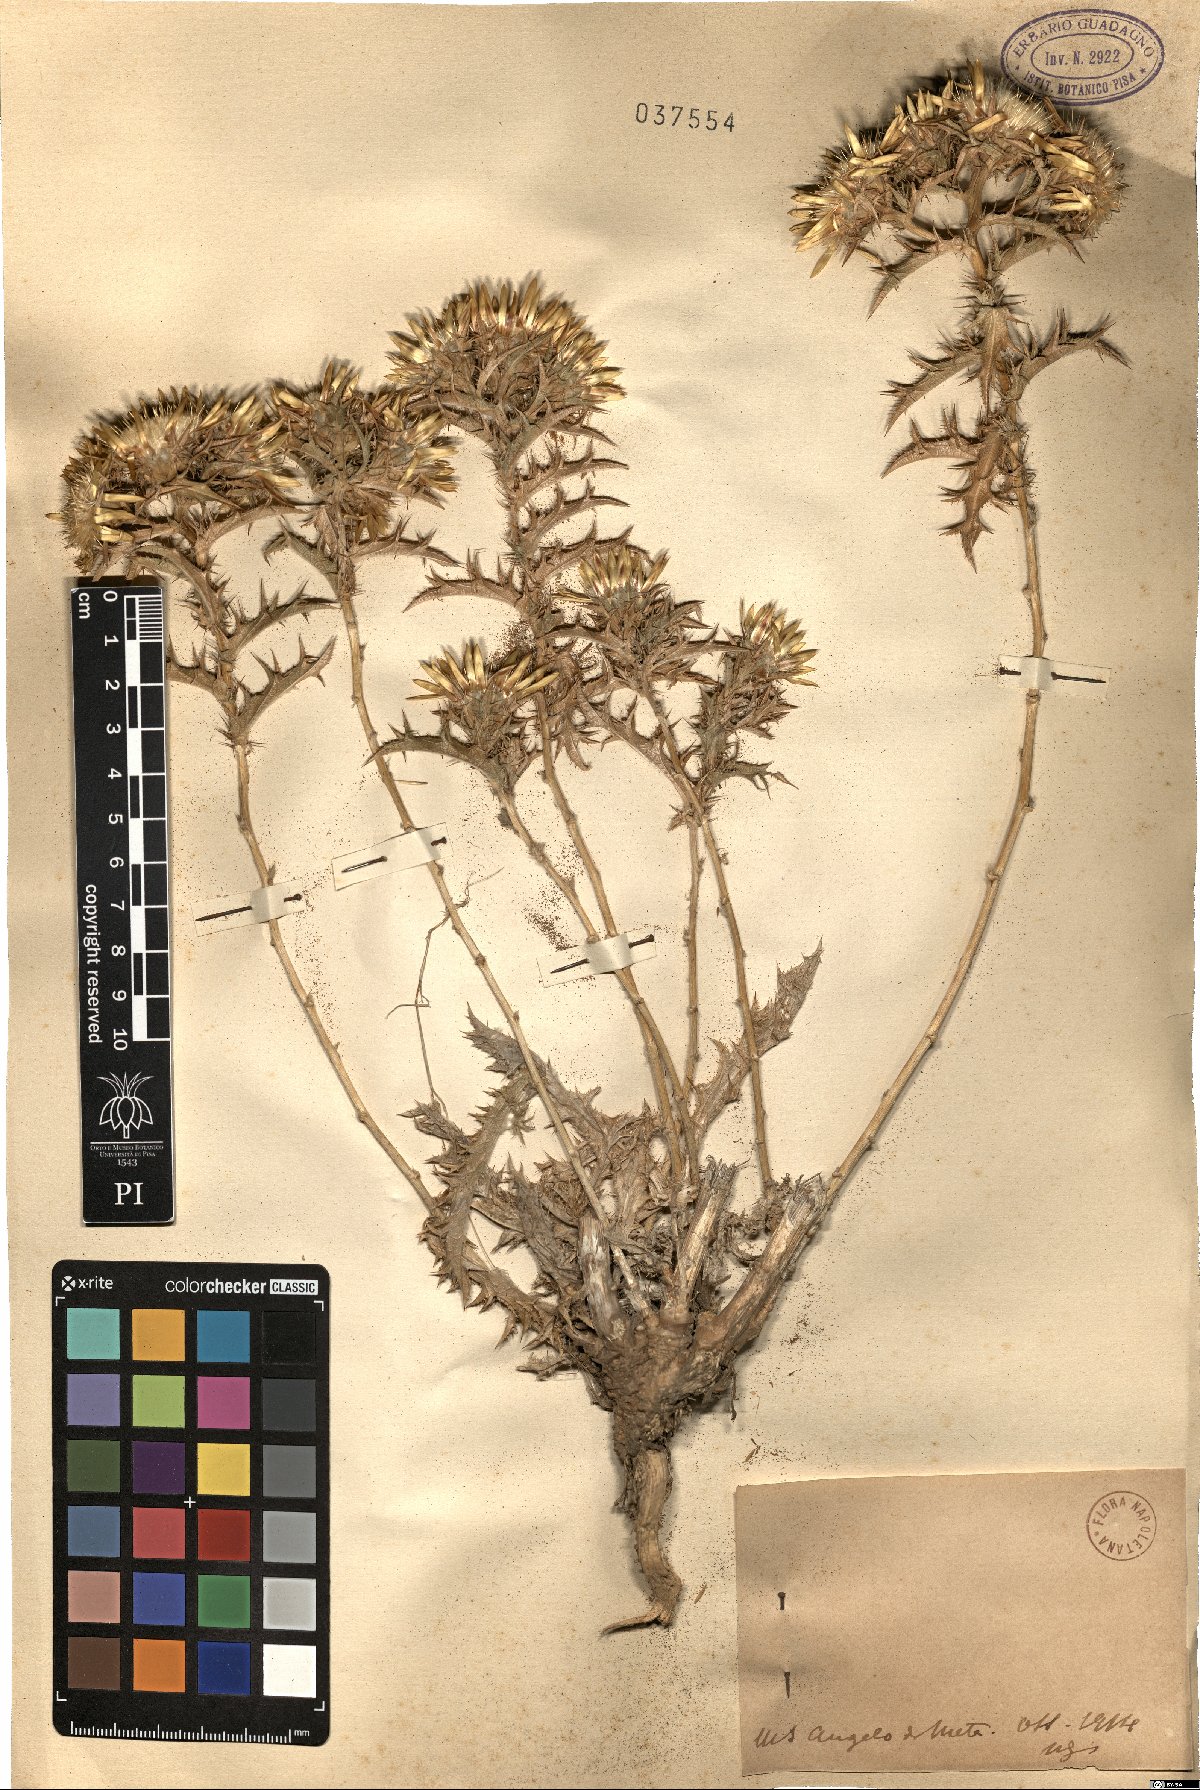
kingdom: Plantae
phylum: Tracheophyta
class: Magnoliopsida
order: Asterales
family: Asteraceae
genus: Carlina
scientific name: Carlina
